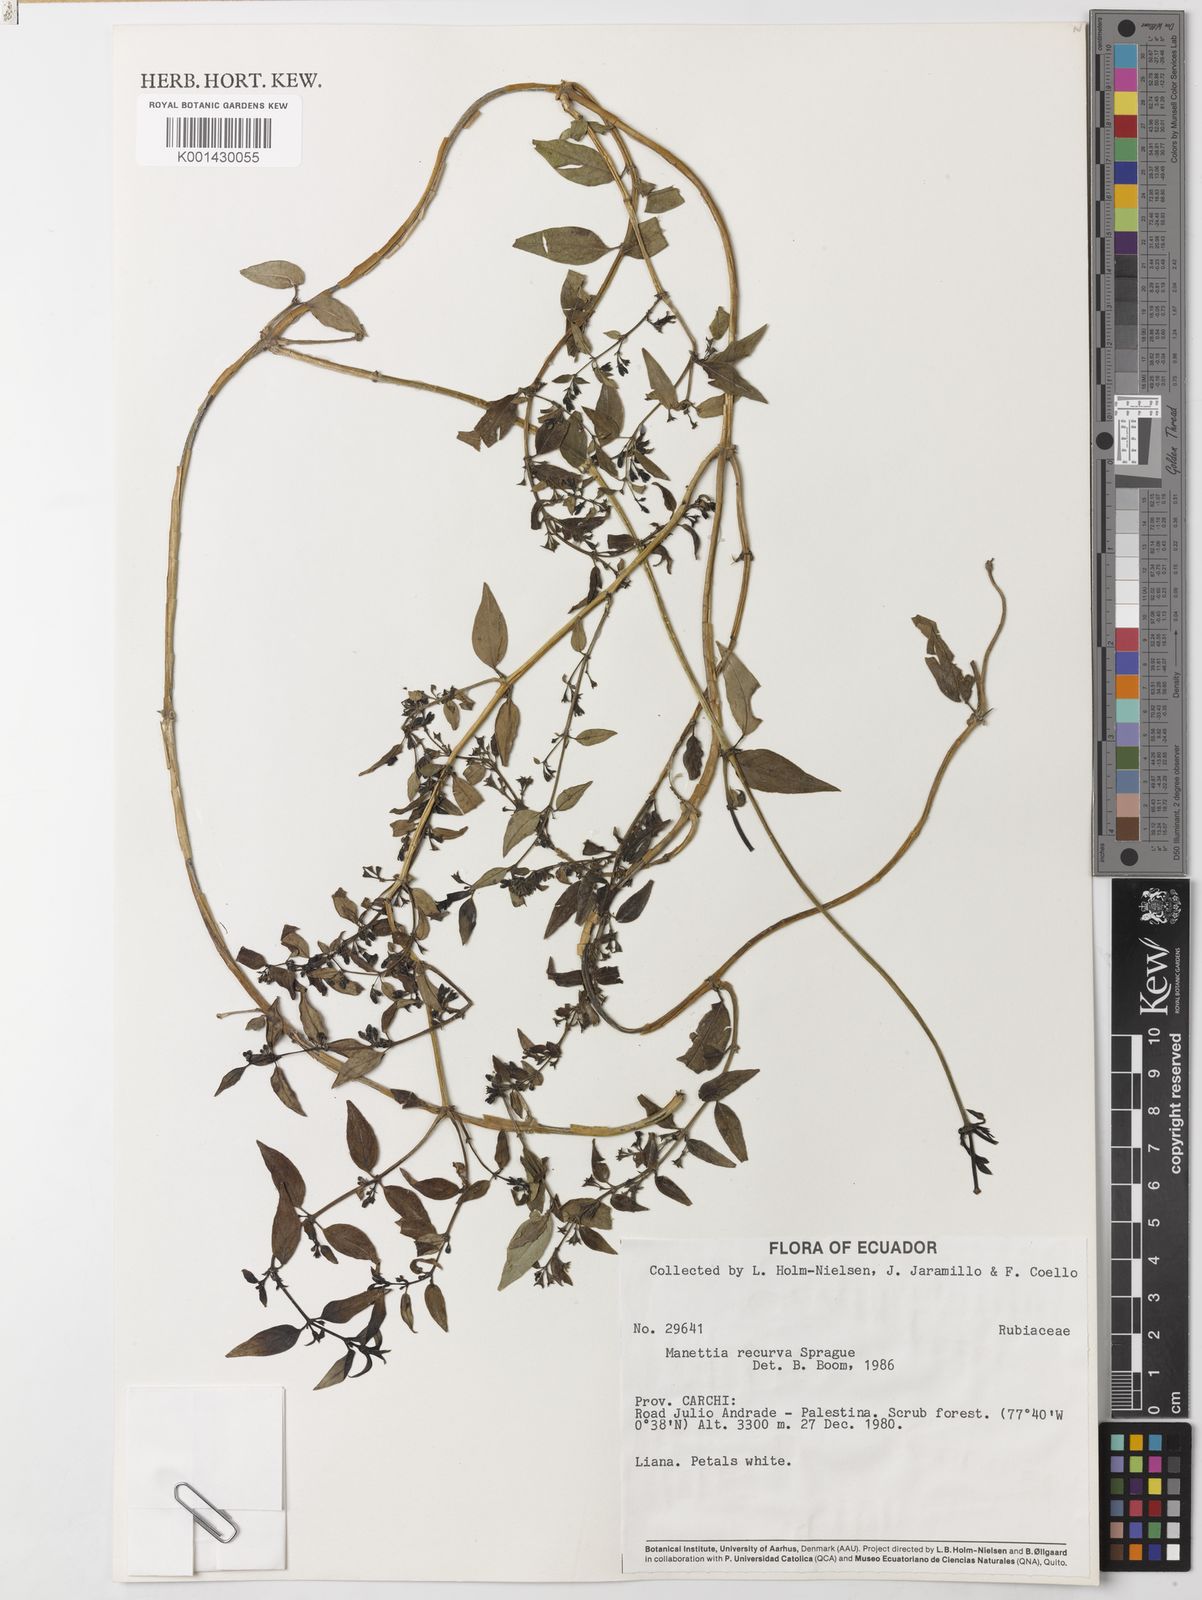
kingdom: Plantae
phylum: Tracheophyta
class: Magnoliopsida
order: Gentianales
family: Rubiaceae
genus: Manettia
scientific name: Manettia recurva
